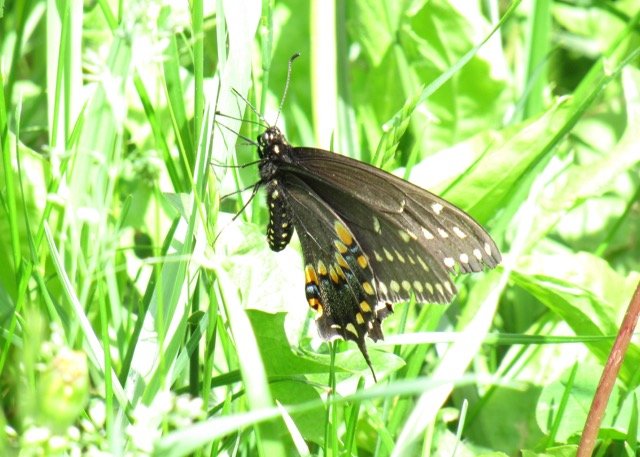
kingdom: Animalia
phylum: Arthropoda
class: Insecta
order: Lepidoptera
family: Papilionidae
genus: Papilio
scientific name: Papilio polyxenes
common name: Black Swallowtail
